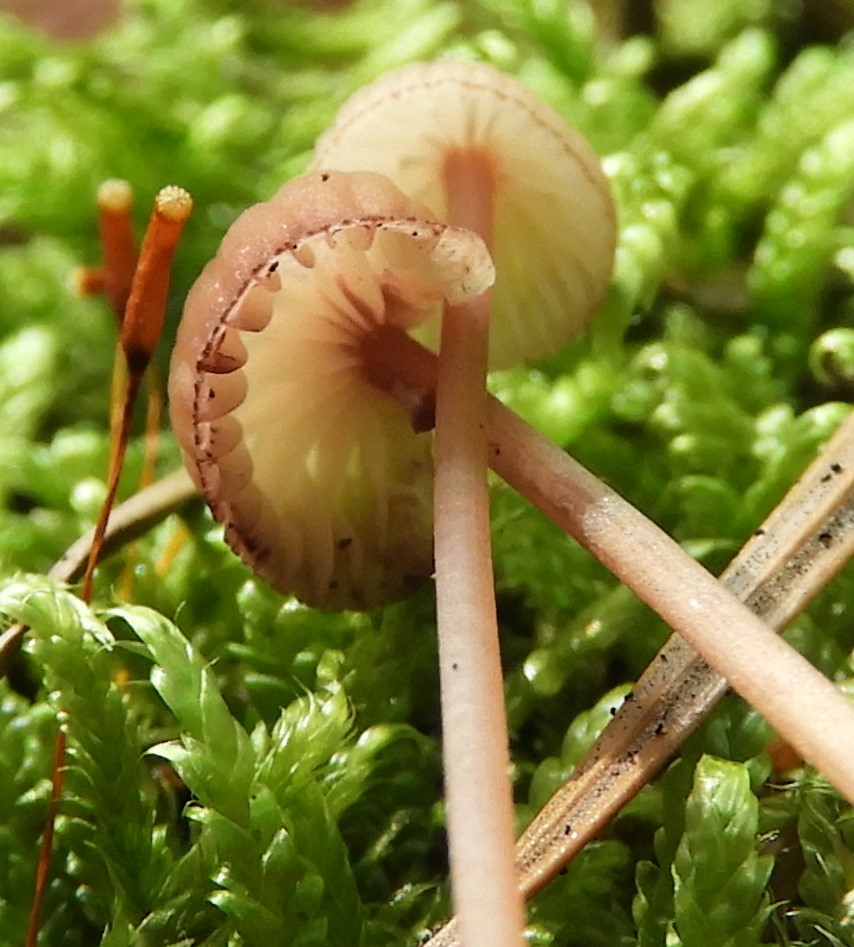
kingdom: Fungi
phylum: Basidiomycota
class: Agaricomycetes
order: Agaricales
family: Mycenaceae
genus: Mycena
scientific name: Mycena sanguinolenta
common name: rødmælket huesvamp
